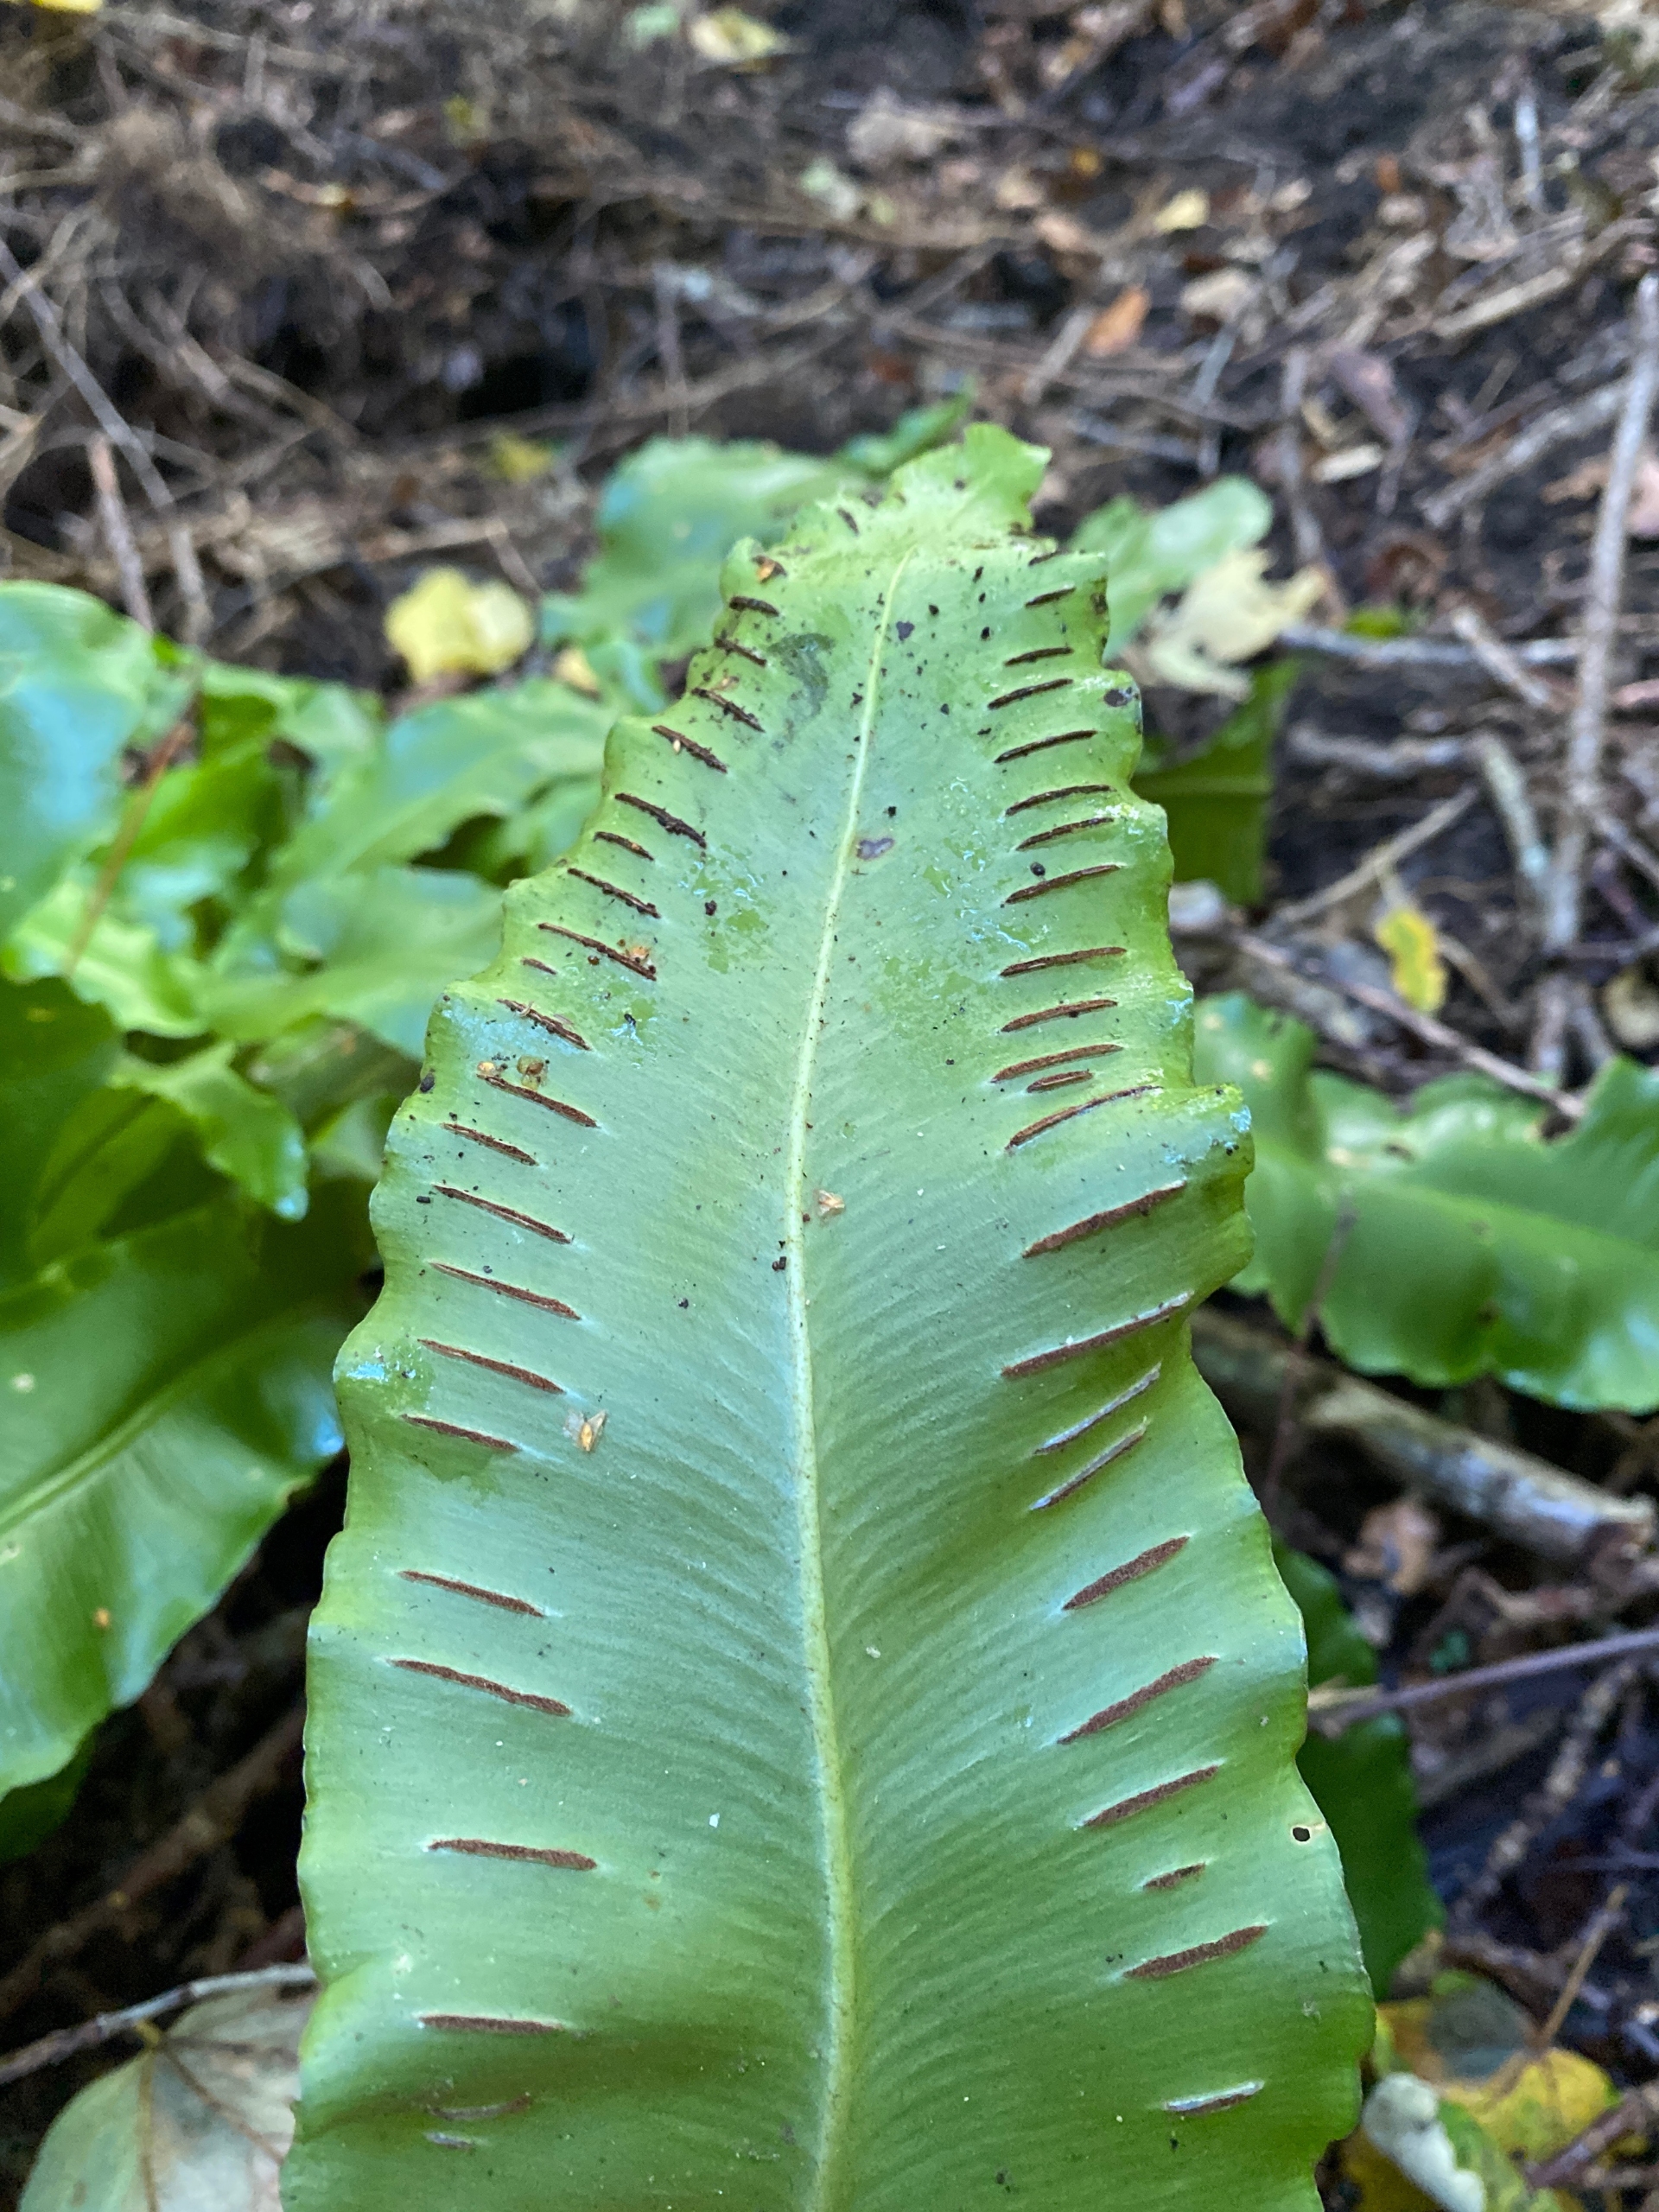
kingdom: Plantae
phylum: Tracheophyta
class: Polypodiopsida
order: Polypodiales
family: Aspleniaceae
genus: Asplenium
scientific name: Asplenium scolopendrium
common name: Hjortetunge
